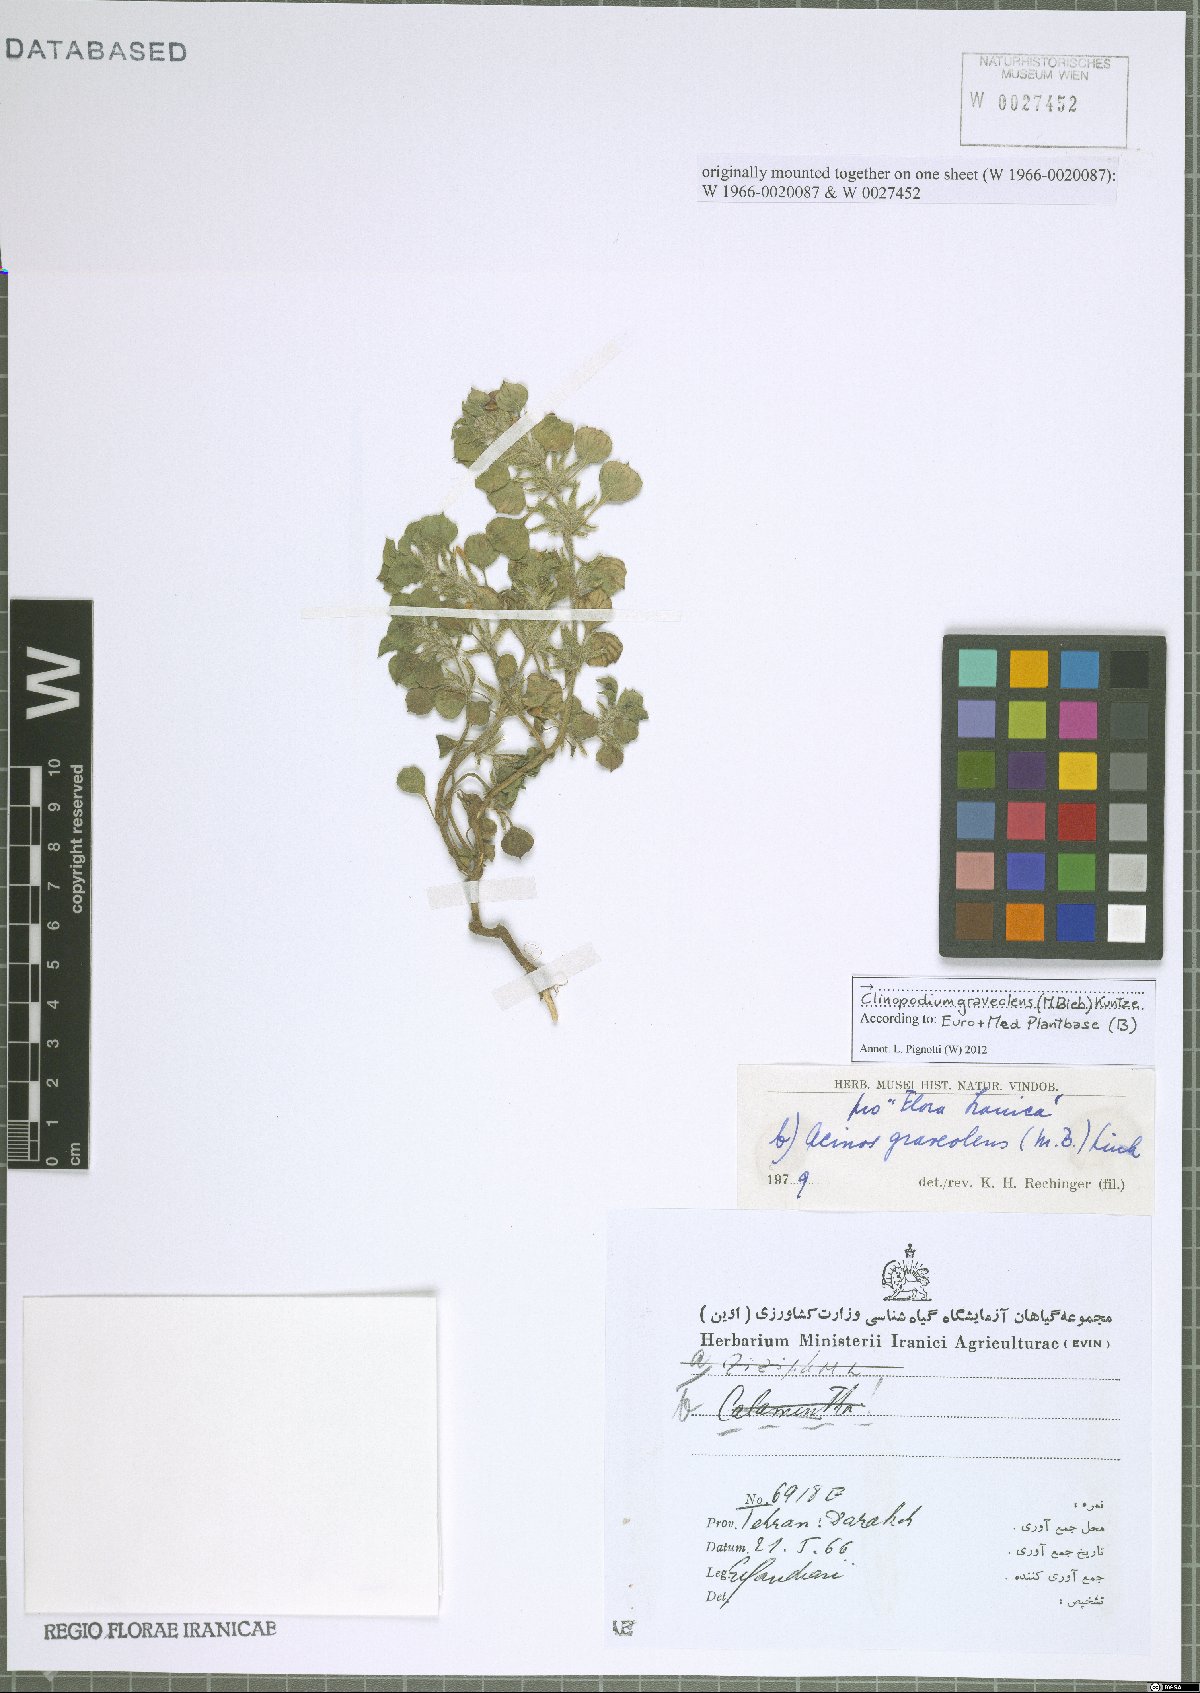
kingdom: Plantae
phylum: Tracheophyta
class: Magnoliopsida
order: Lamiales
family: Lamiaceae
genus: Clinopodium
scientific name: Clinopodium graveolens
